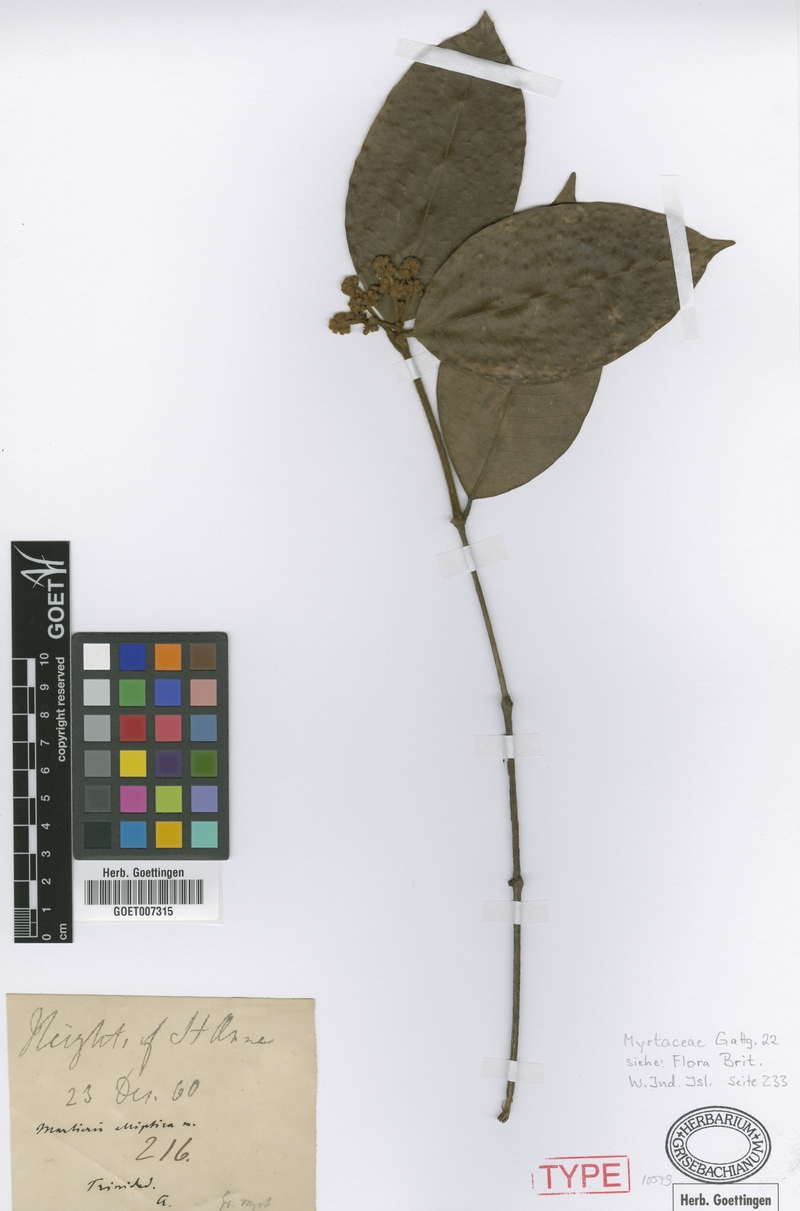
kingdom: Plantae
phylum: Tracheophyta
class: Magnoliopsida
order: Myrtales
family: Myrtaceae
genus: Myrcia
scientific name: Myrcia ferruginea
